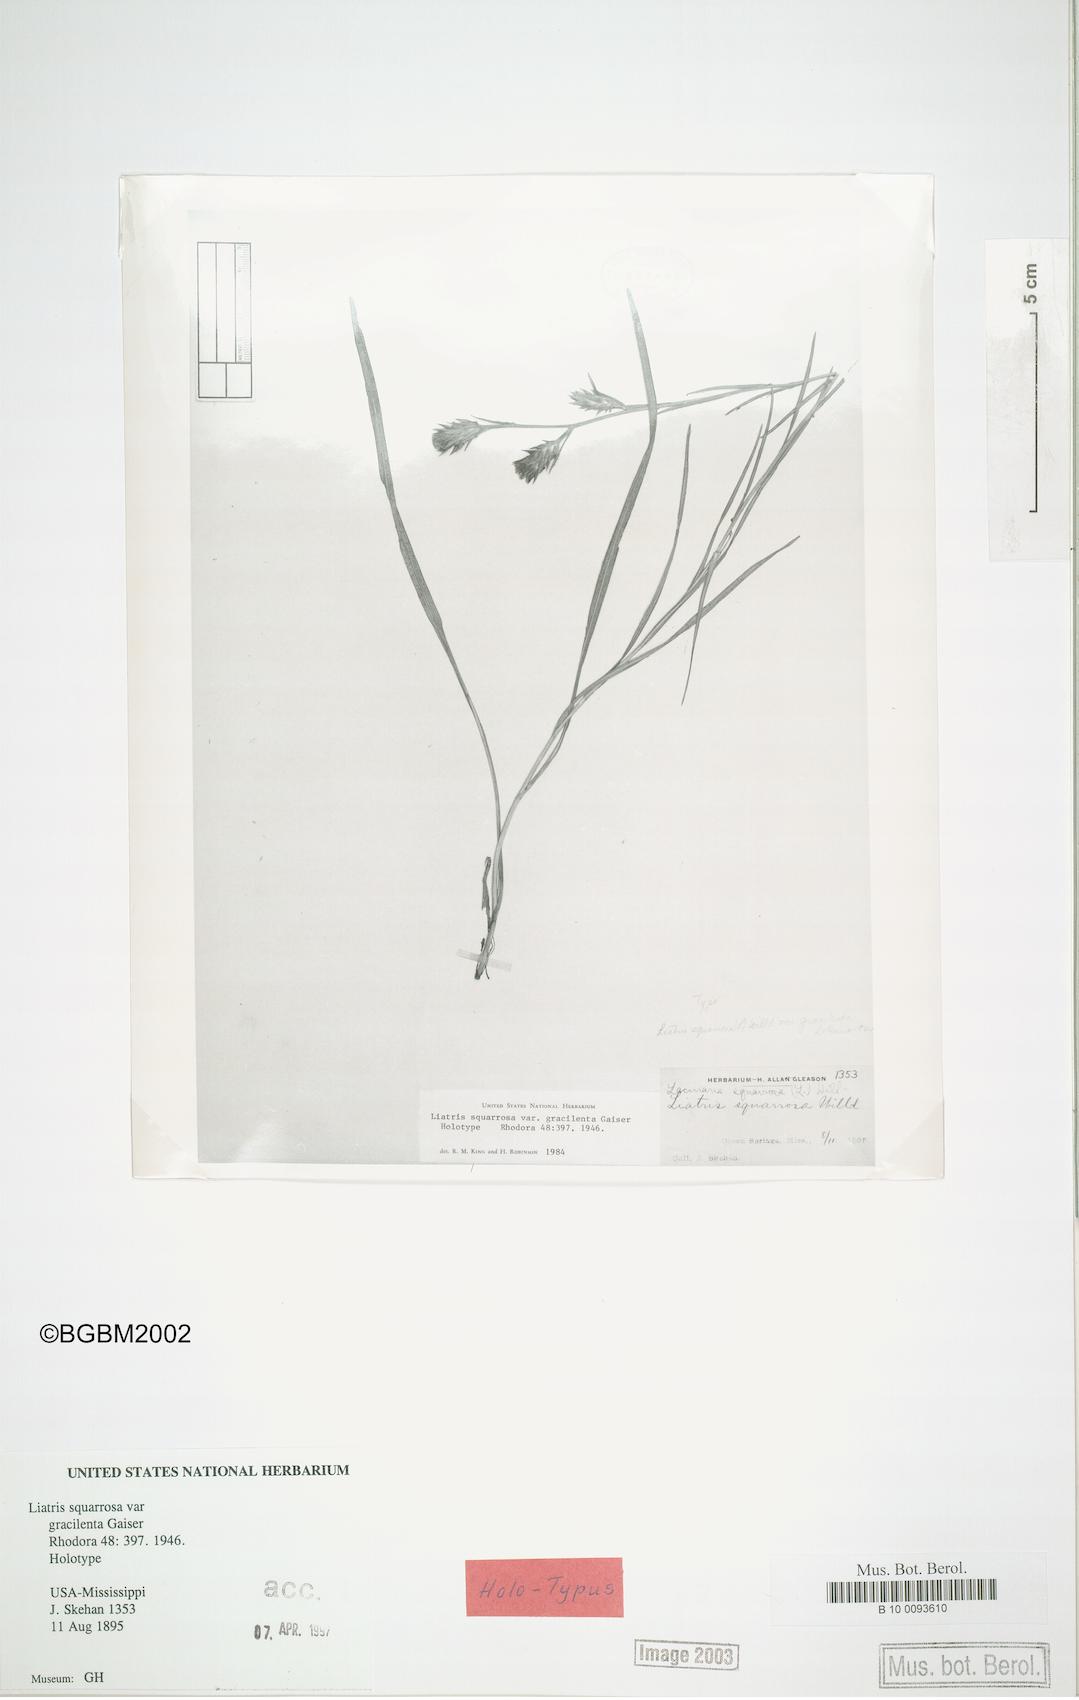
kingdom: Plantae
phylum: Tracheophyta
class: Magnoliopsida
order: Asterales
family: Asteraceae
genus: Liatris
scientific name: Liatris squarrosa
